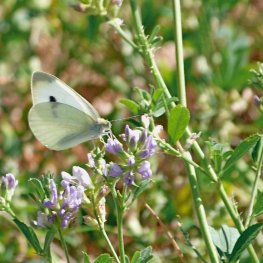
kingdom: Animalia
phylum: Arthropoda
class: Insecta
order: Lepidoptera
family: Pieridae
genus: Pieris
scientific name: Pieris rapae
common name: Cabbage White
